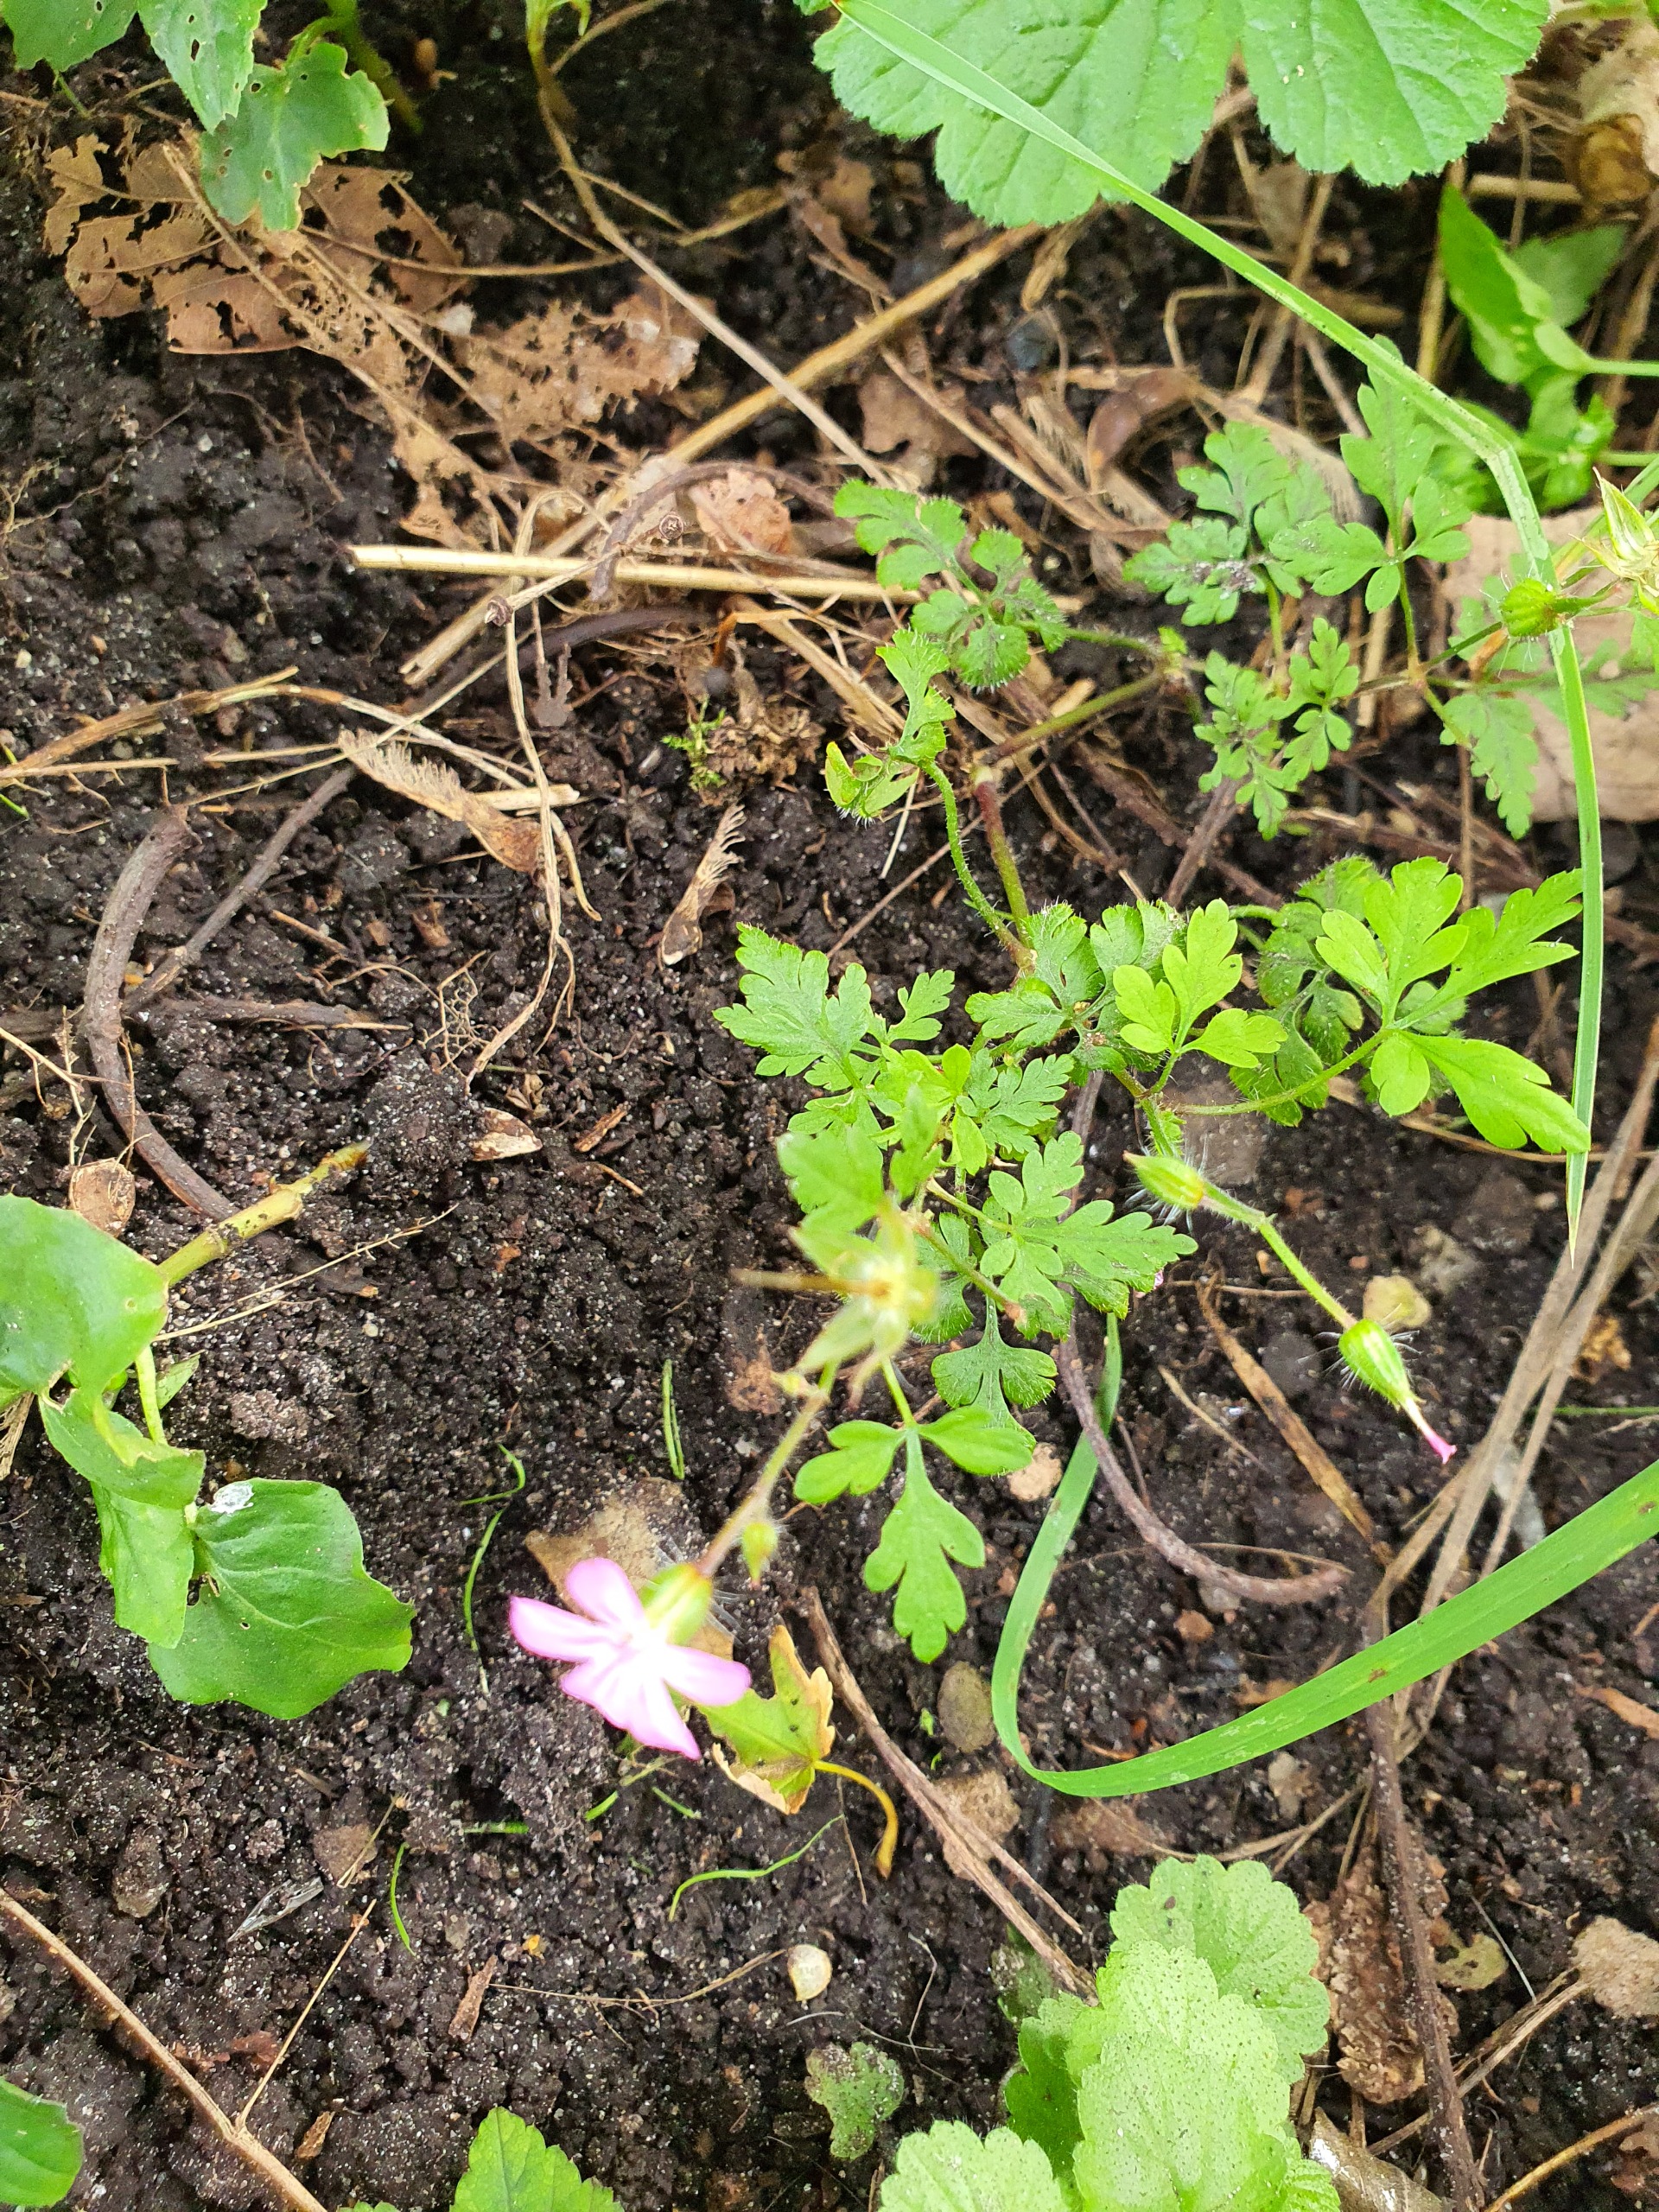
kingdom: Plantae
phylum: Tracheophyta
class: Magnoliopsida
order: Geraniales
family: Geraniaceae
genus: Geranium
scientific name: Geranium robertianum
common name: Stinkende storkenæb
